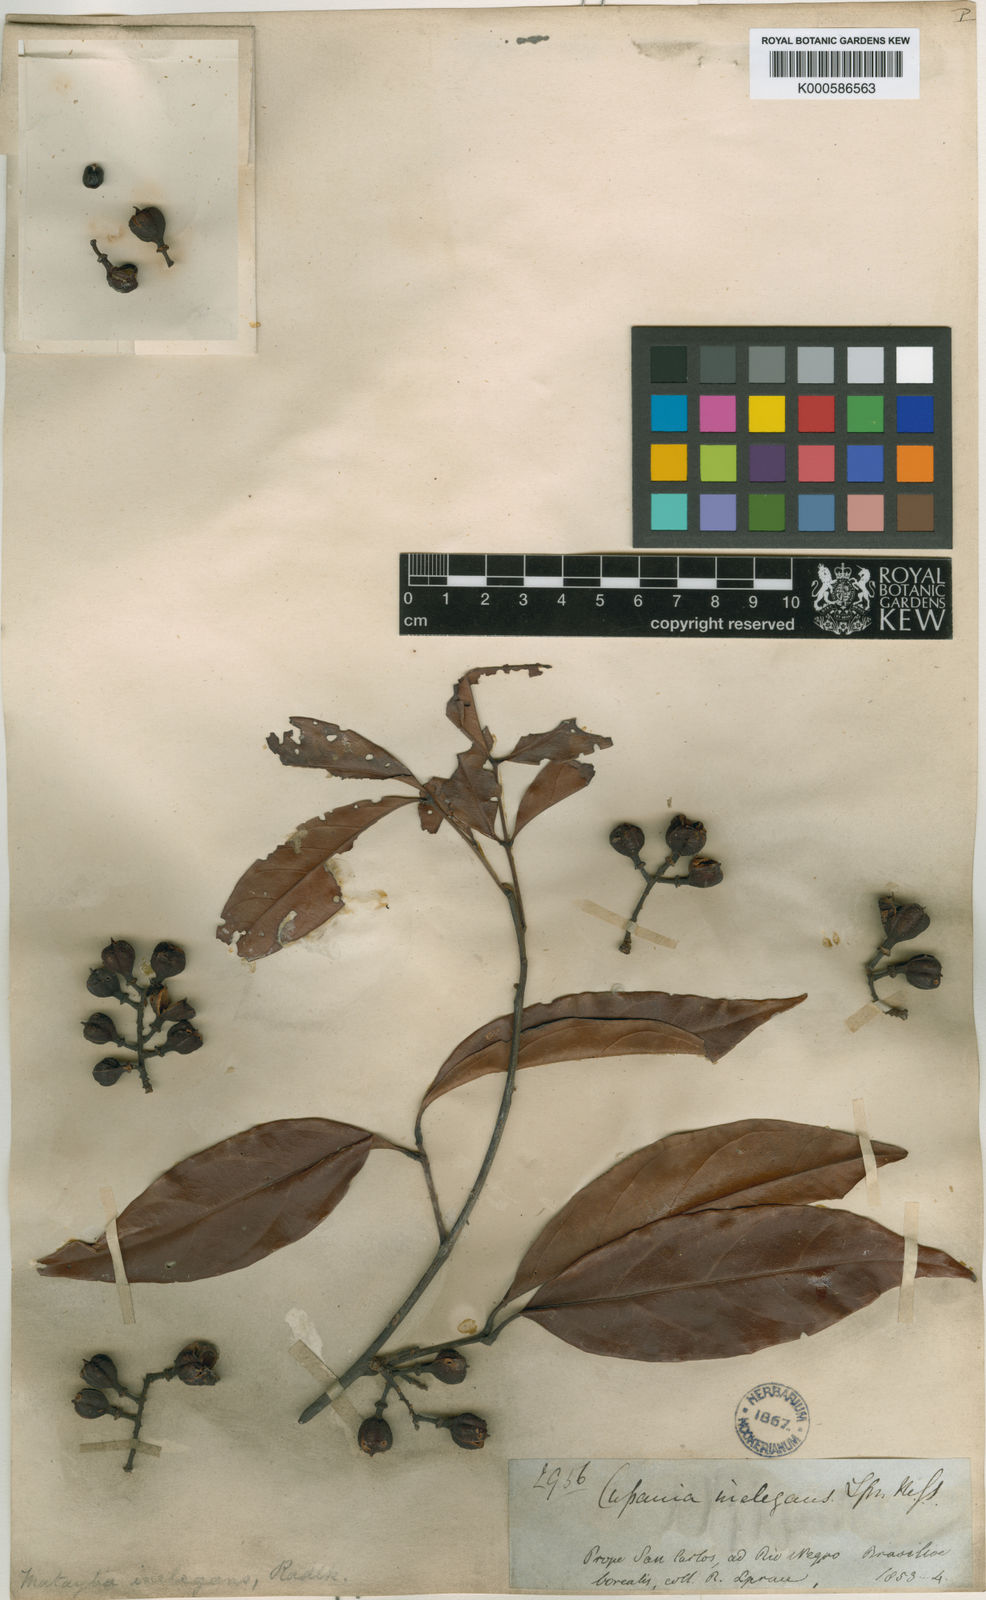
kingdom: Plantae
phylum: Tracheophyta
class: Magnoliopsida
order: Sapindales
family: Sapindaceae
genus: Matayba
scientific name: Matayba inelegans
